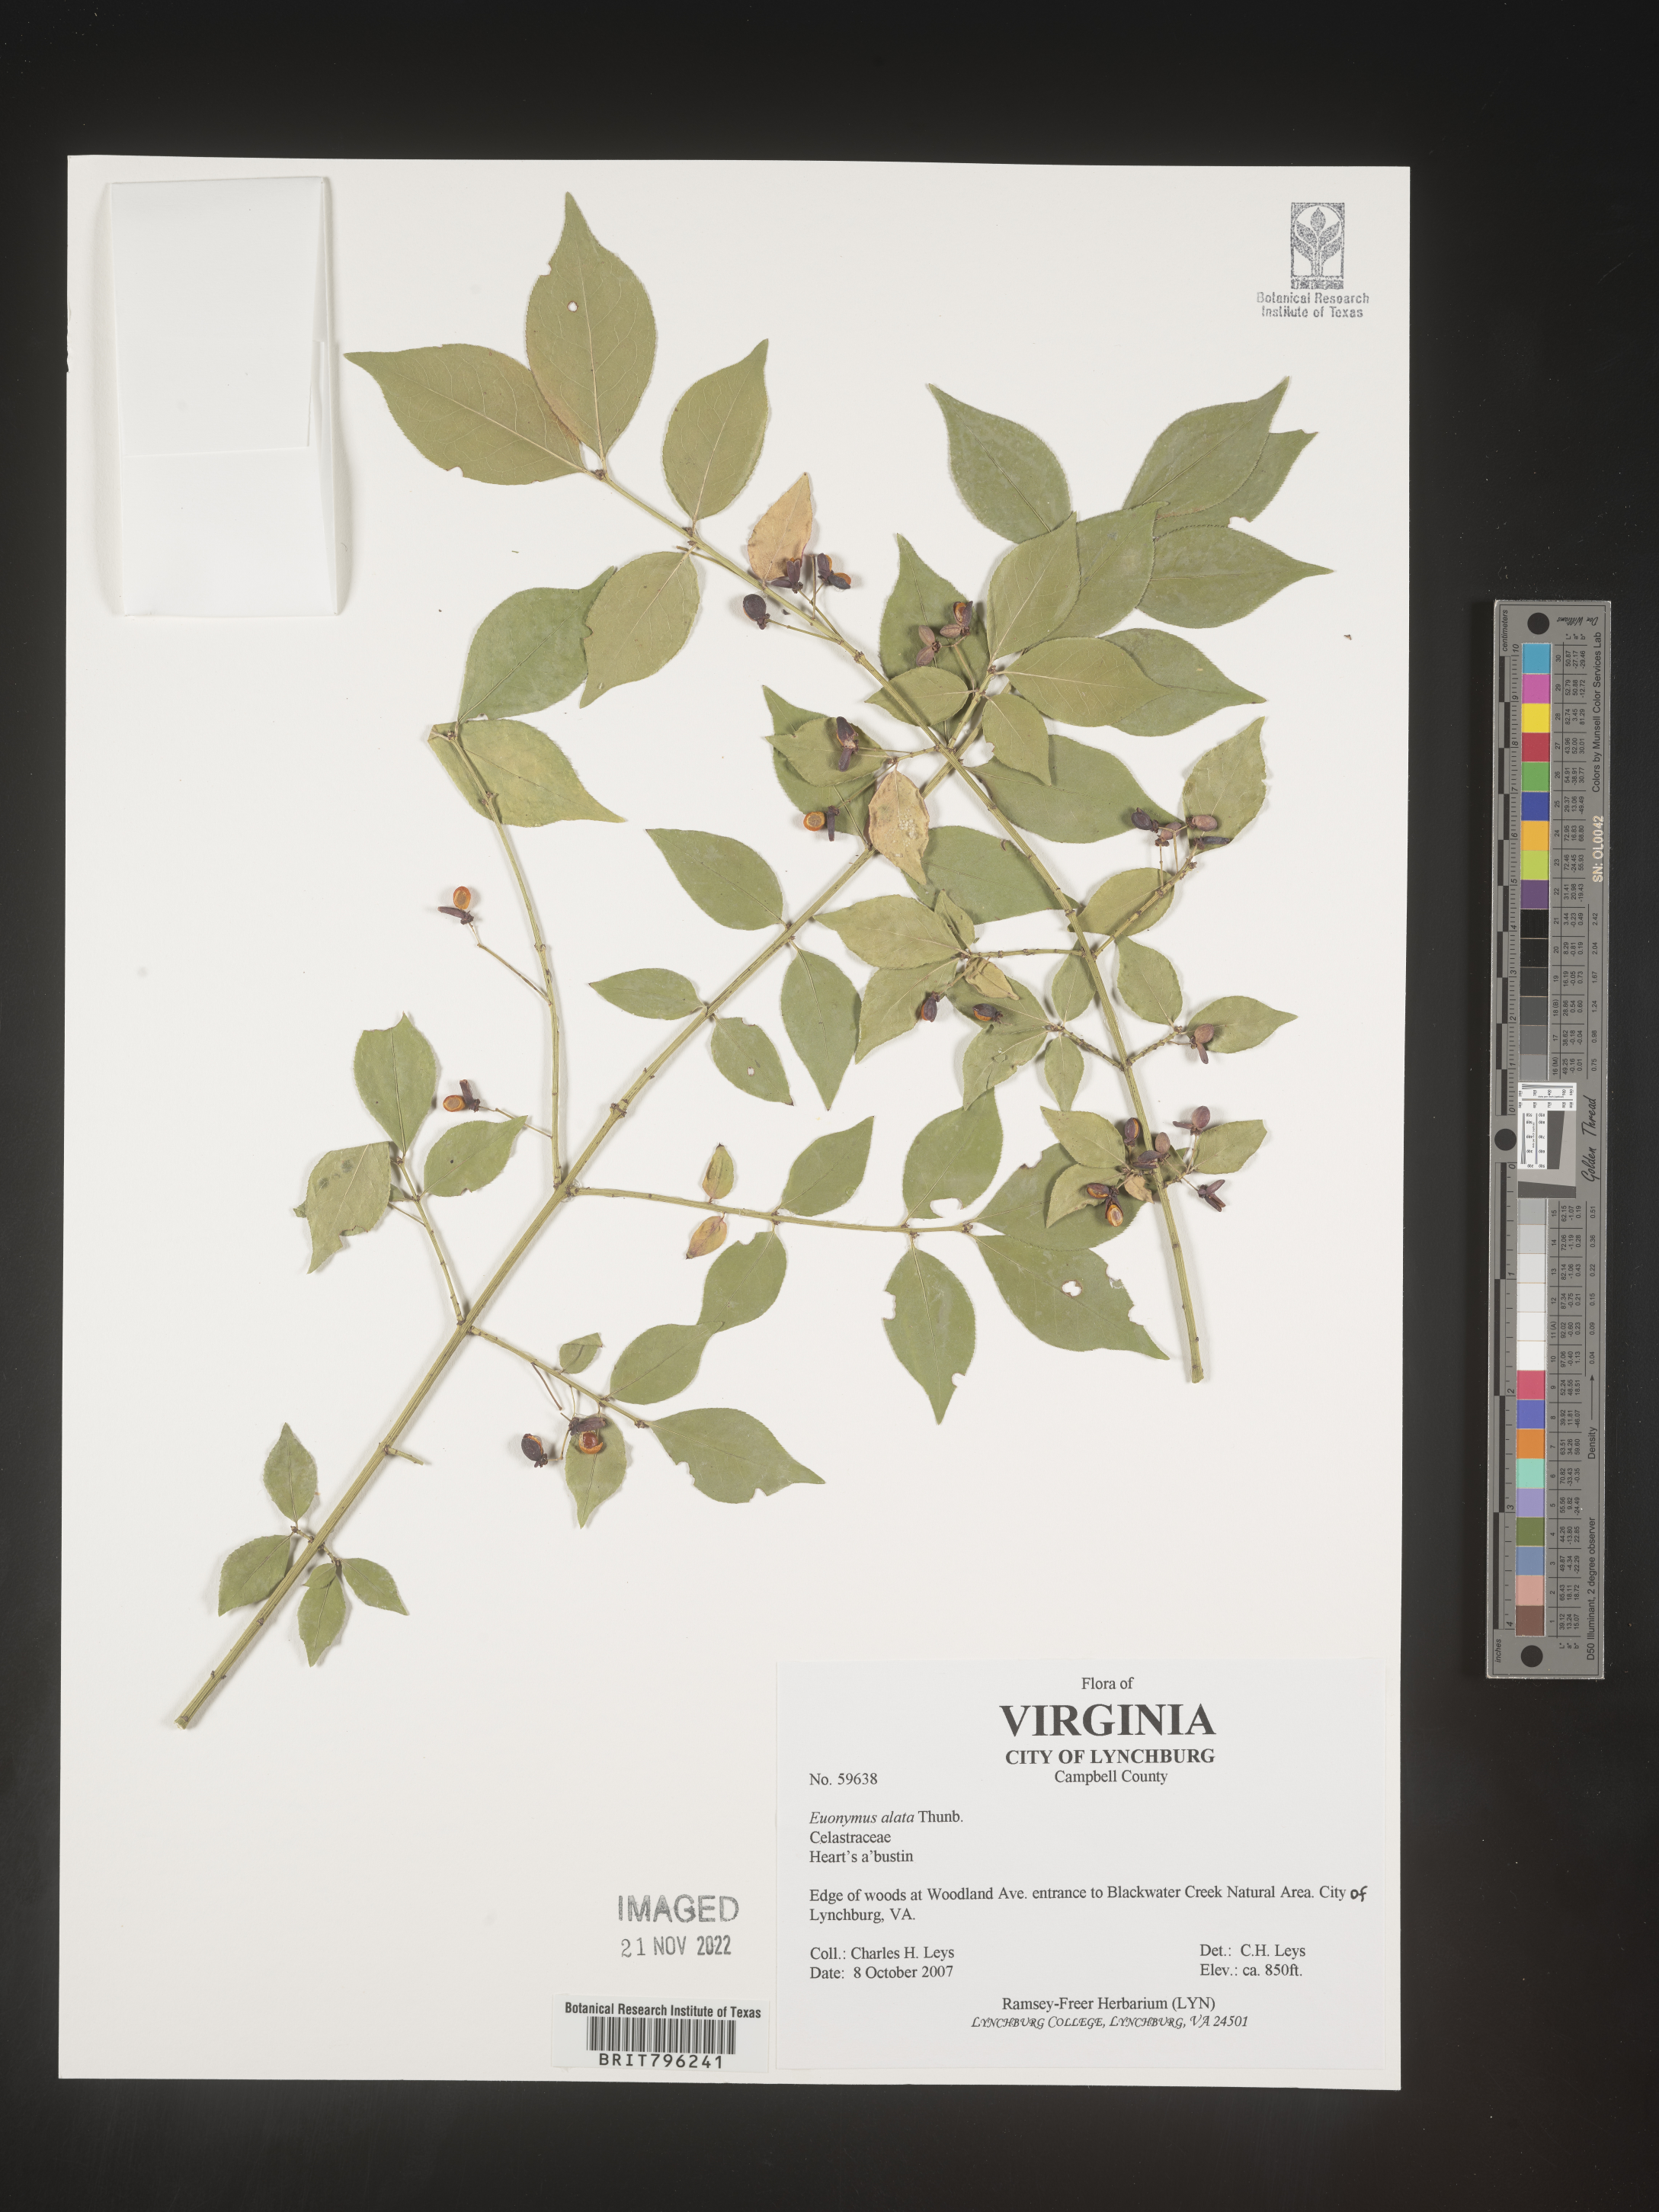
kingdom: Plantae
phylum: Tracheophyta
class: Magnoliopsida
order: Celastrales
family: Celastraceae
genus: Euonymus
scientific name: Euonymus alatus
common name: Winged euonymus
